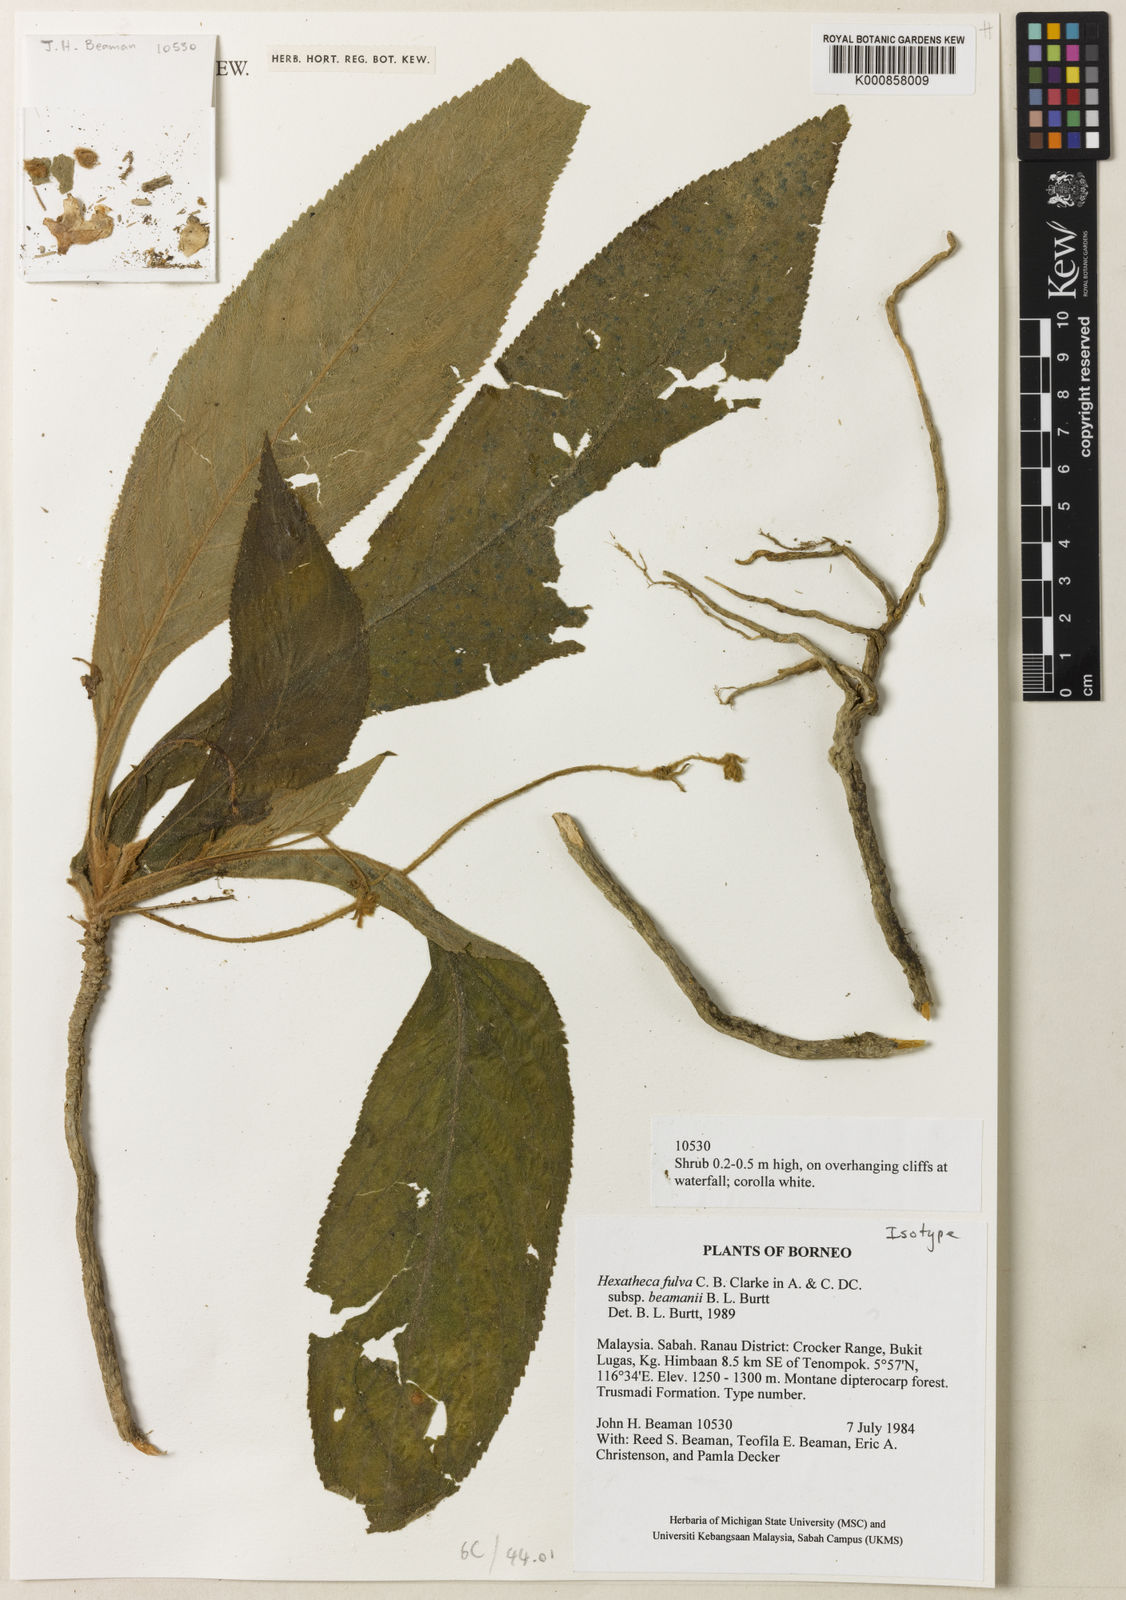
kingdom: Plantae
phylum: Tracheophyta
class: Magnoliopsida
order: Lamiales
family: Gesneriaceae
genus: Hexatheca
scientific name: Hexatheca fulva
